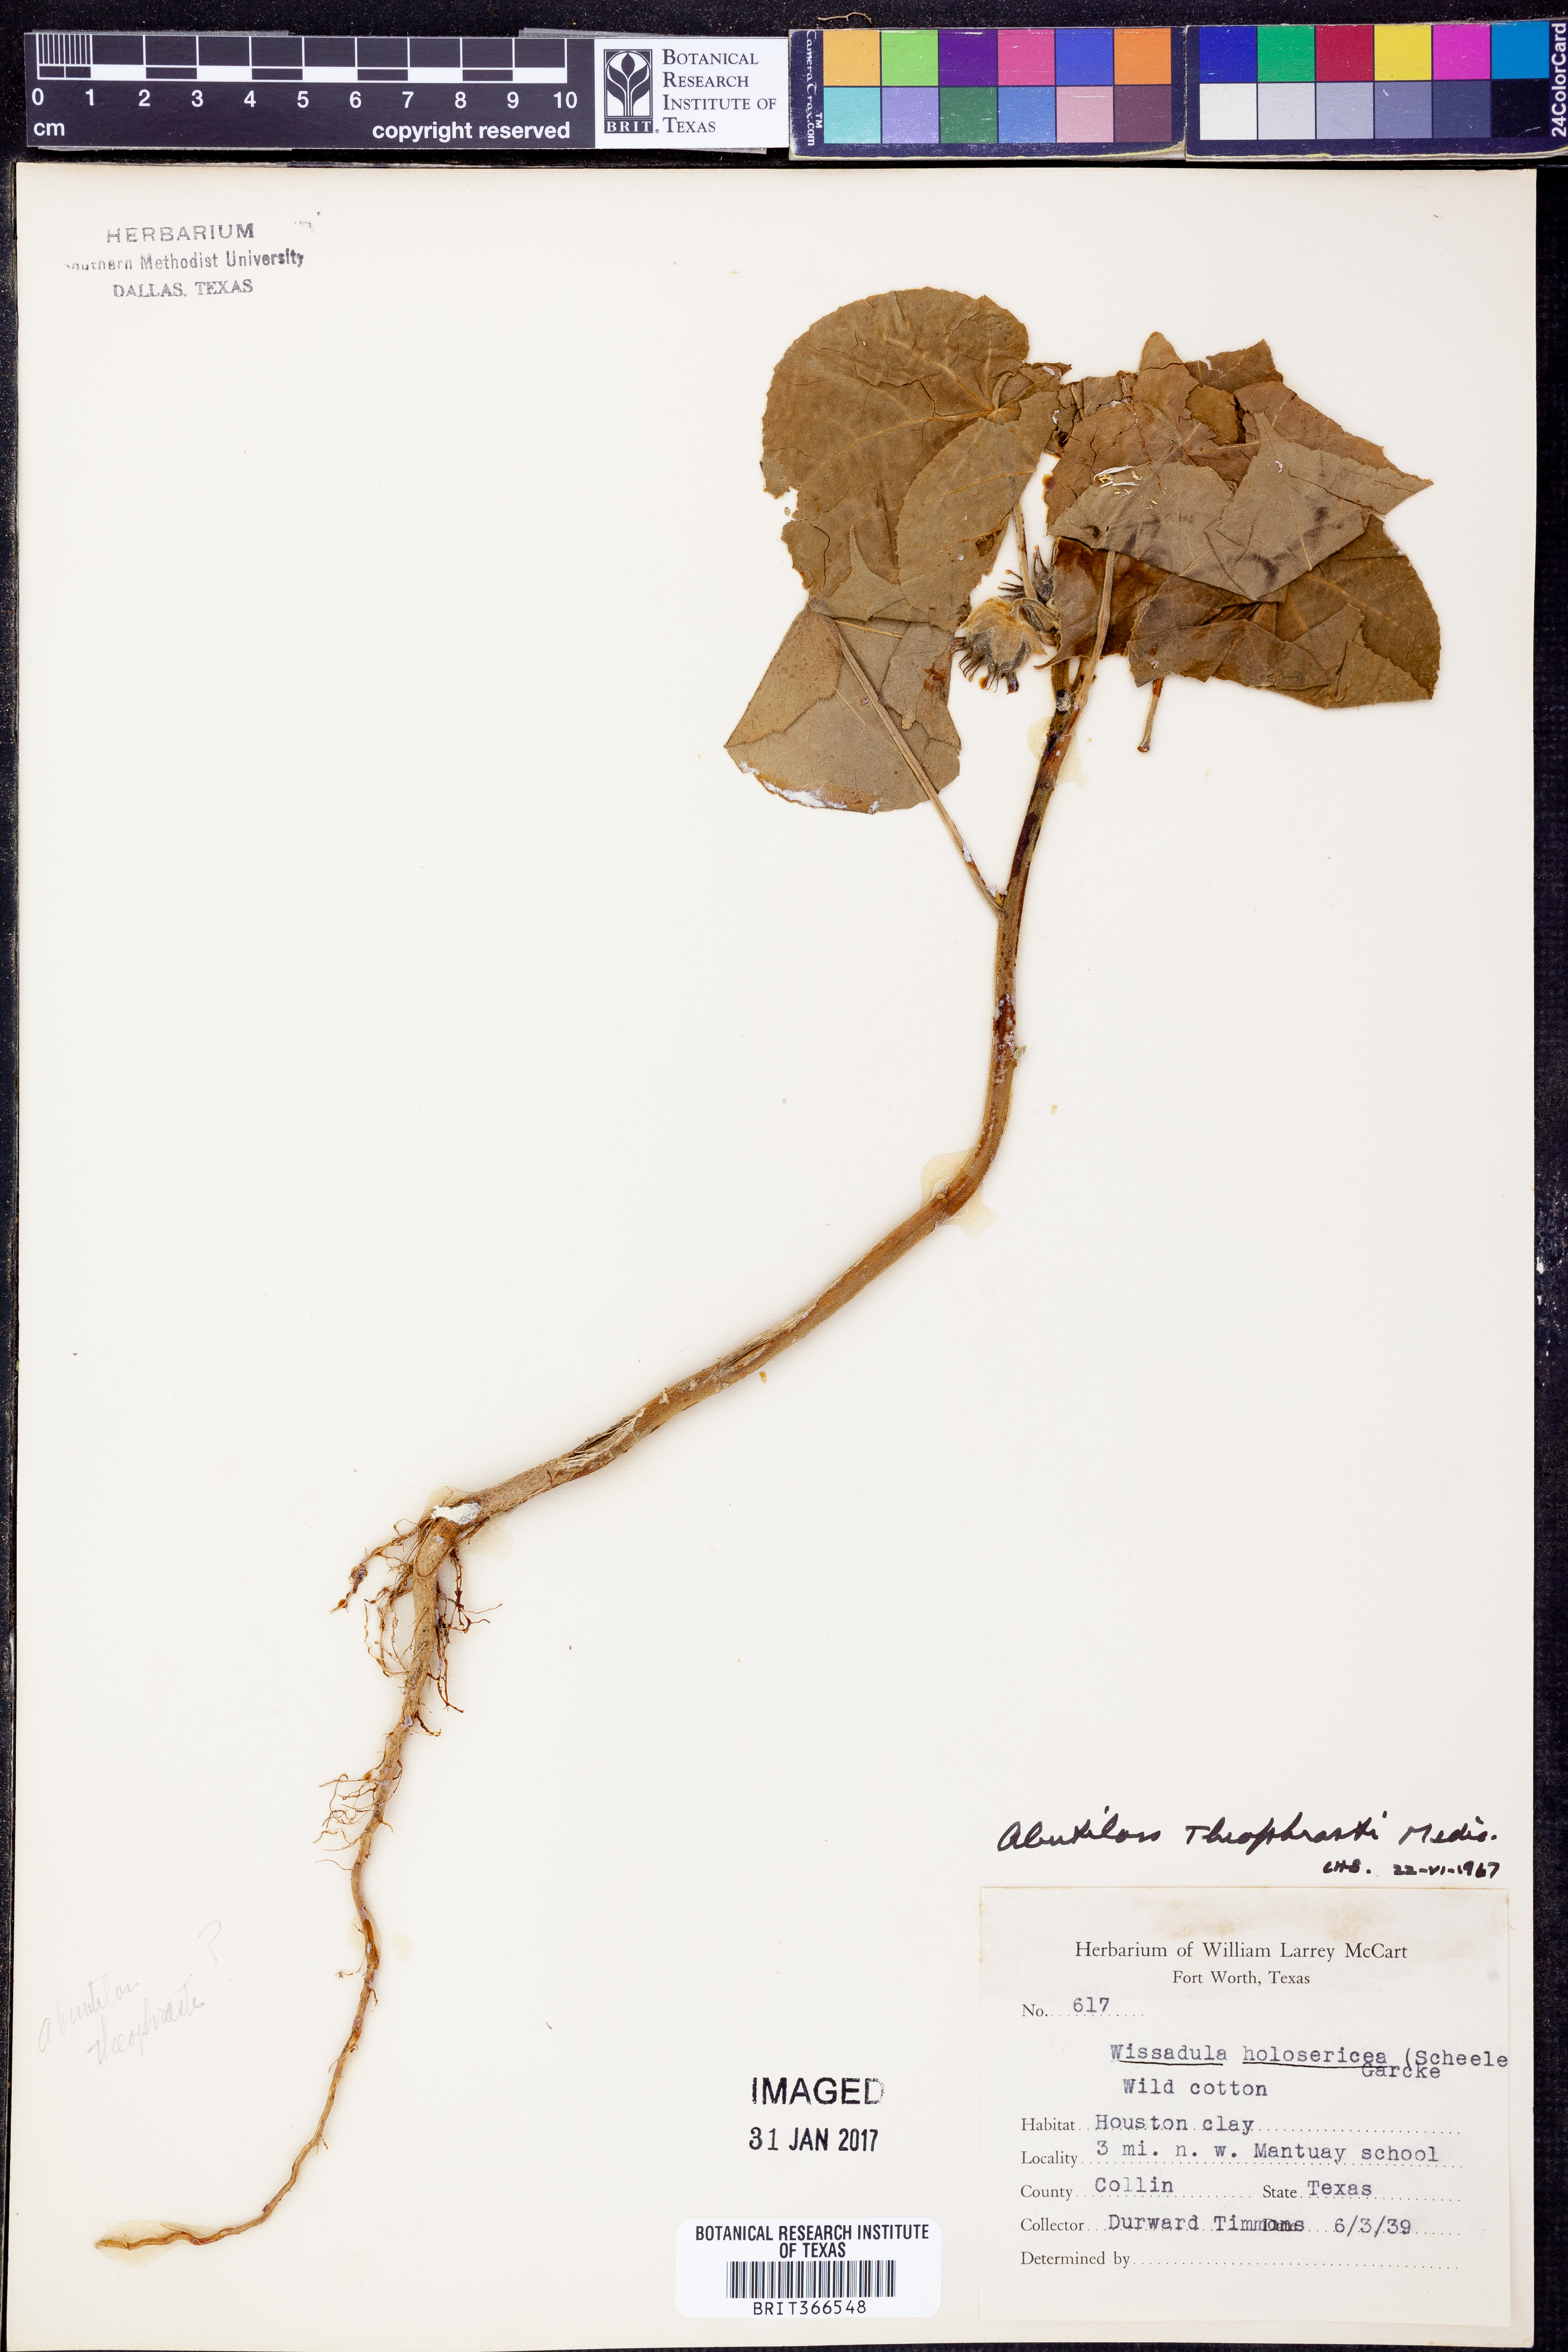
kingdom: Plantae
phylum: Tracheophyta
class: Magnoliopsida
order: Malvales
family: Malvaceae
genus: Abutilon
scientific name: Abutilon theophrasti
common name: Velvetleaf
